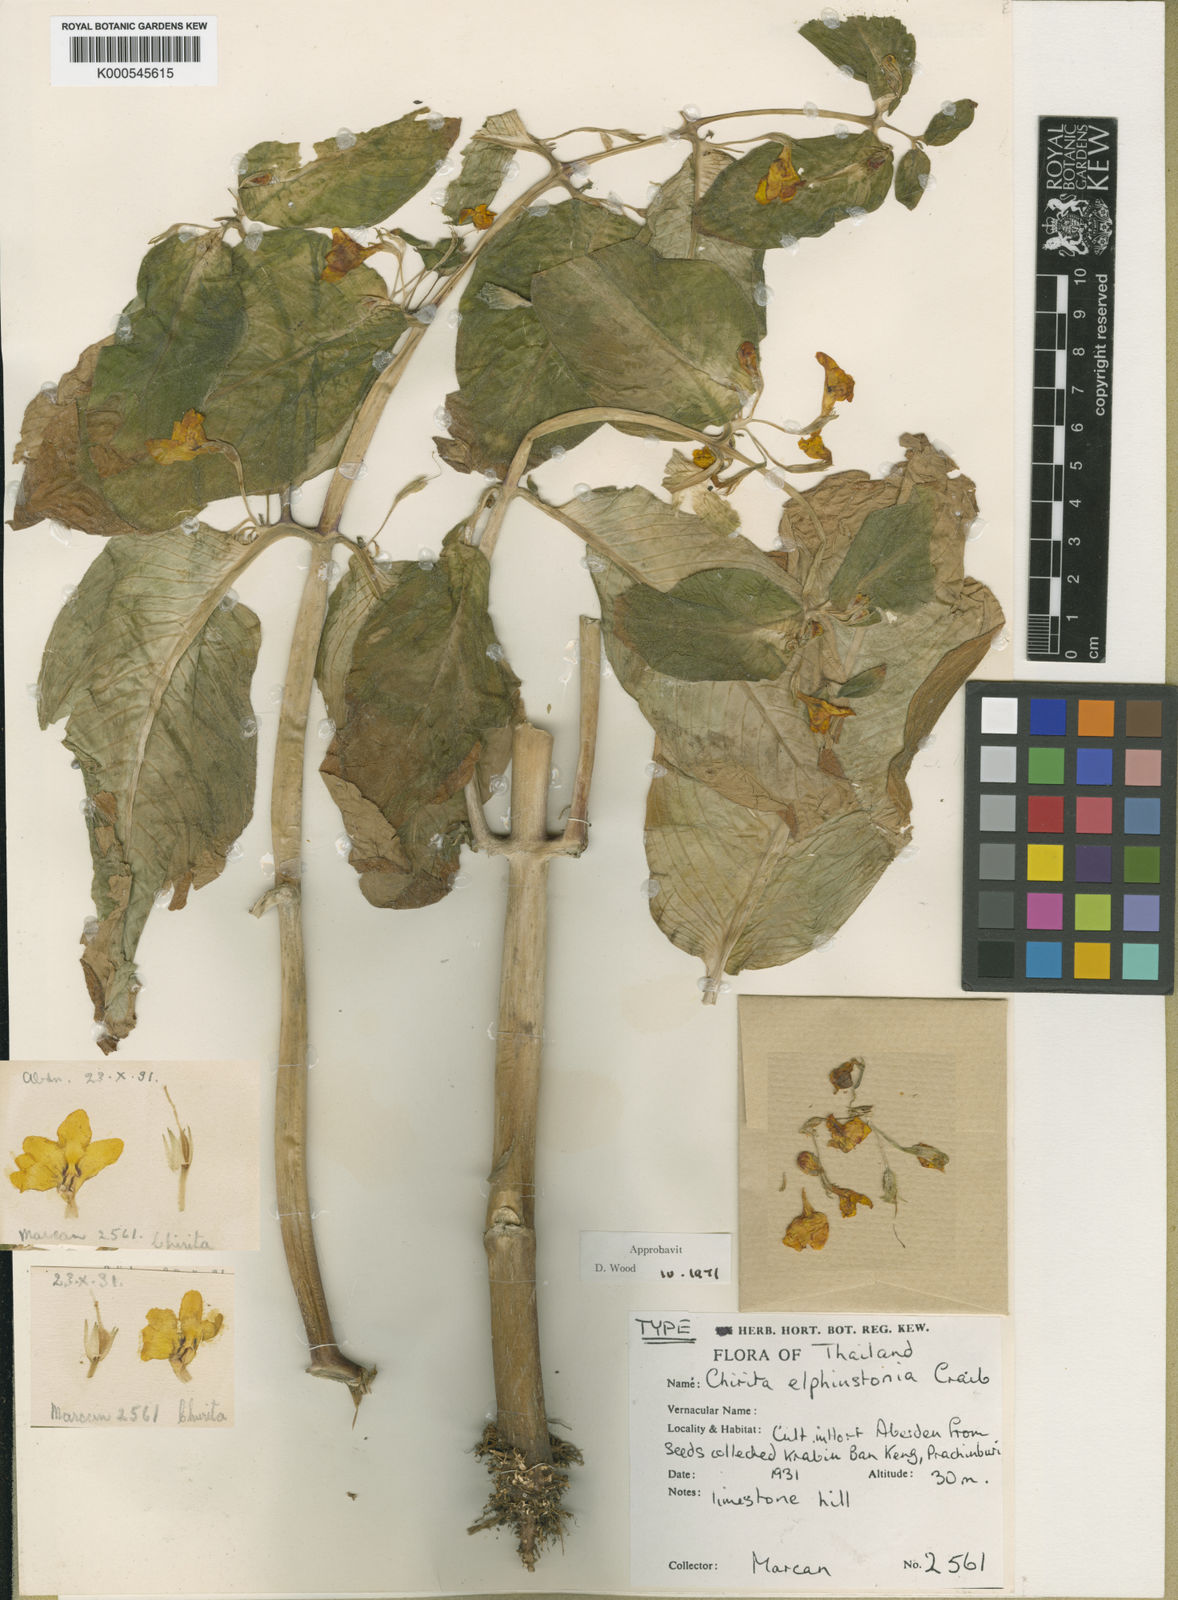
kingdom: Plantae
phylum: Tracheophyta
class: Magnoliopsida
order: Lamiales
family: Gesneriaceae
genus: Microchirita
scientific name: Microchirita elphinstonia
